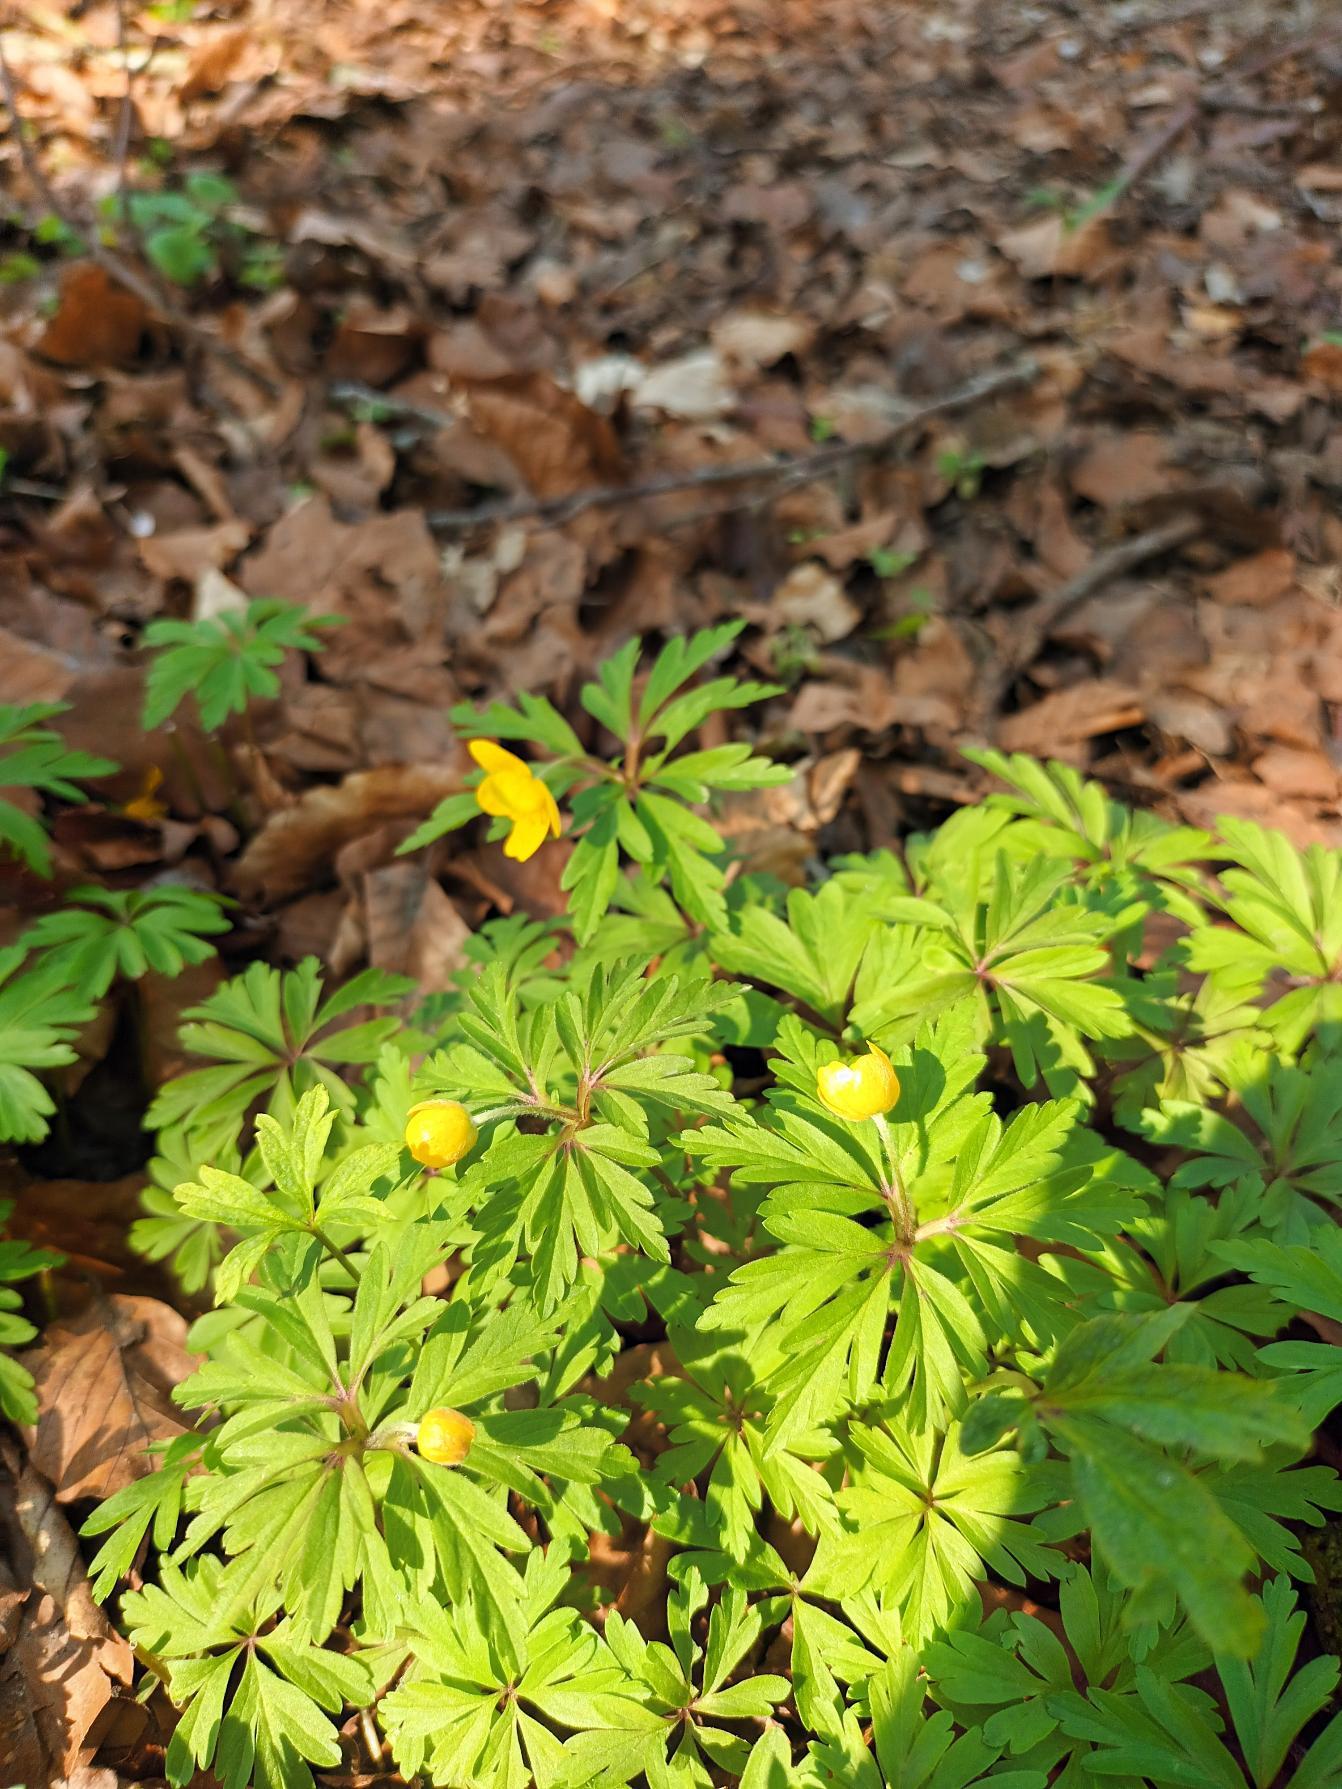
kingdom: Plantae
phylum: Tracheophyta
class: Magnoliopsida
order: Ranunculales
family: Ranunculaceae
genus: Anemone
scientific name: Anemone ranunculoides
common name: Gul anemone
